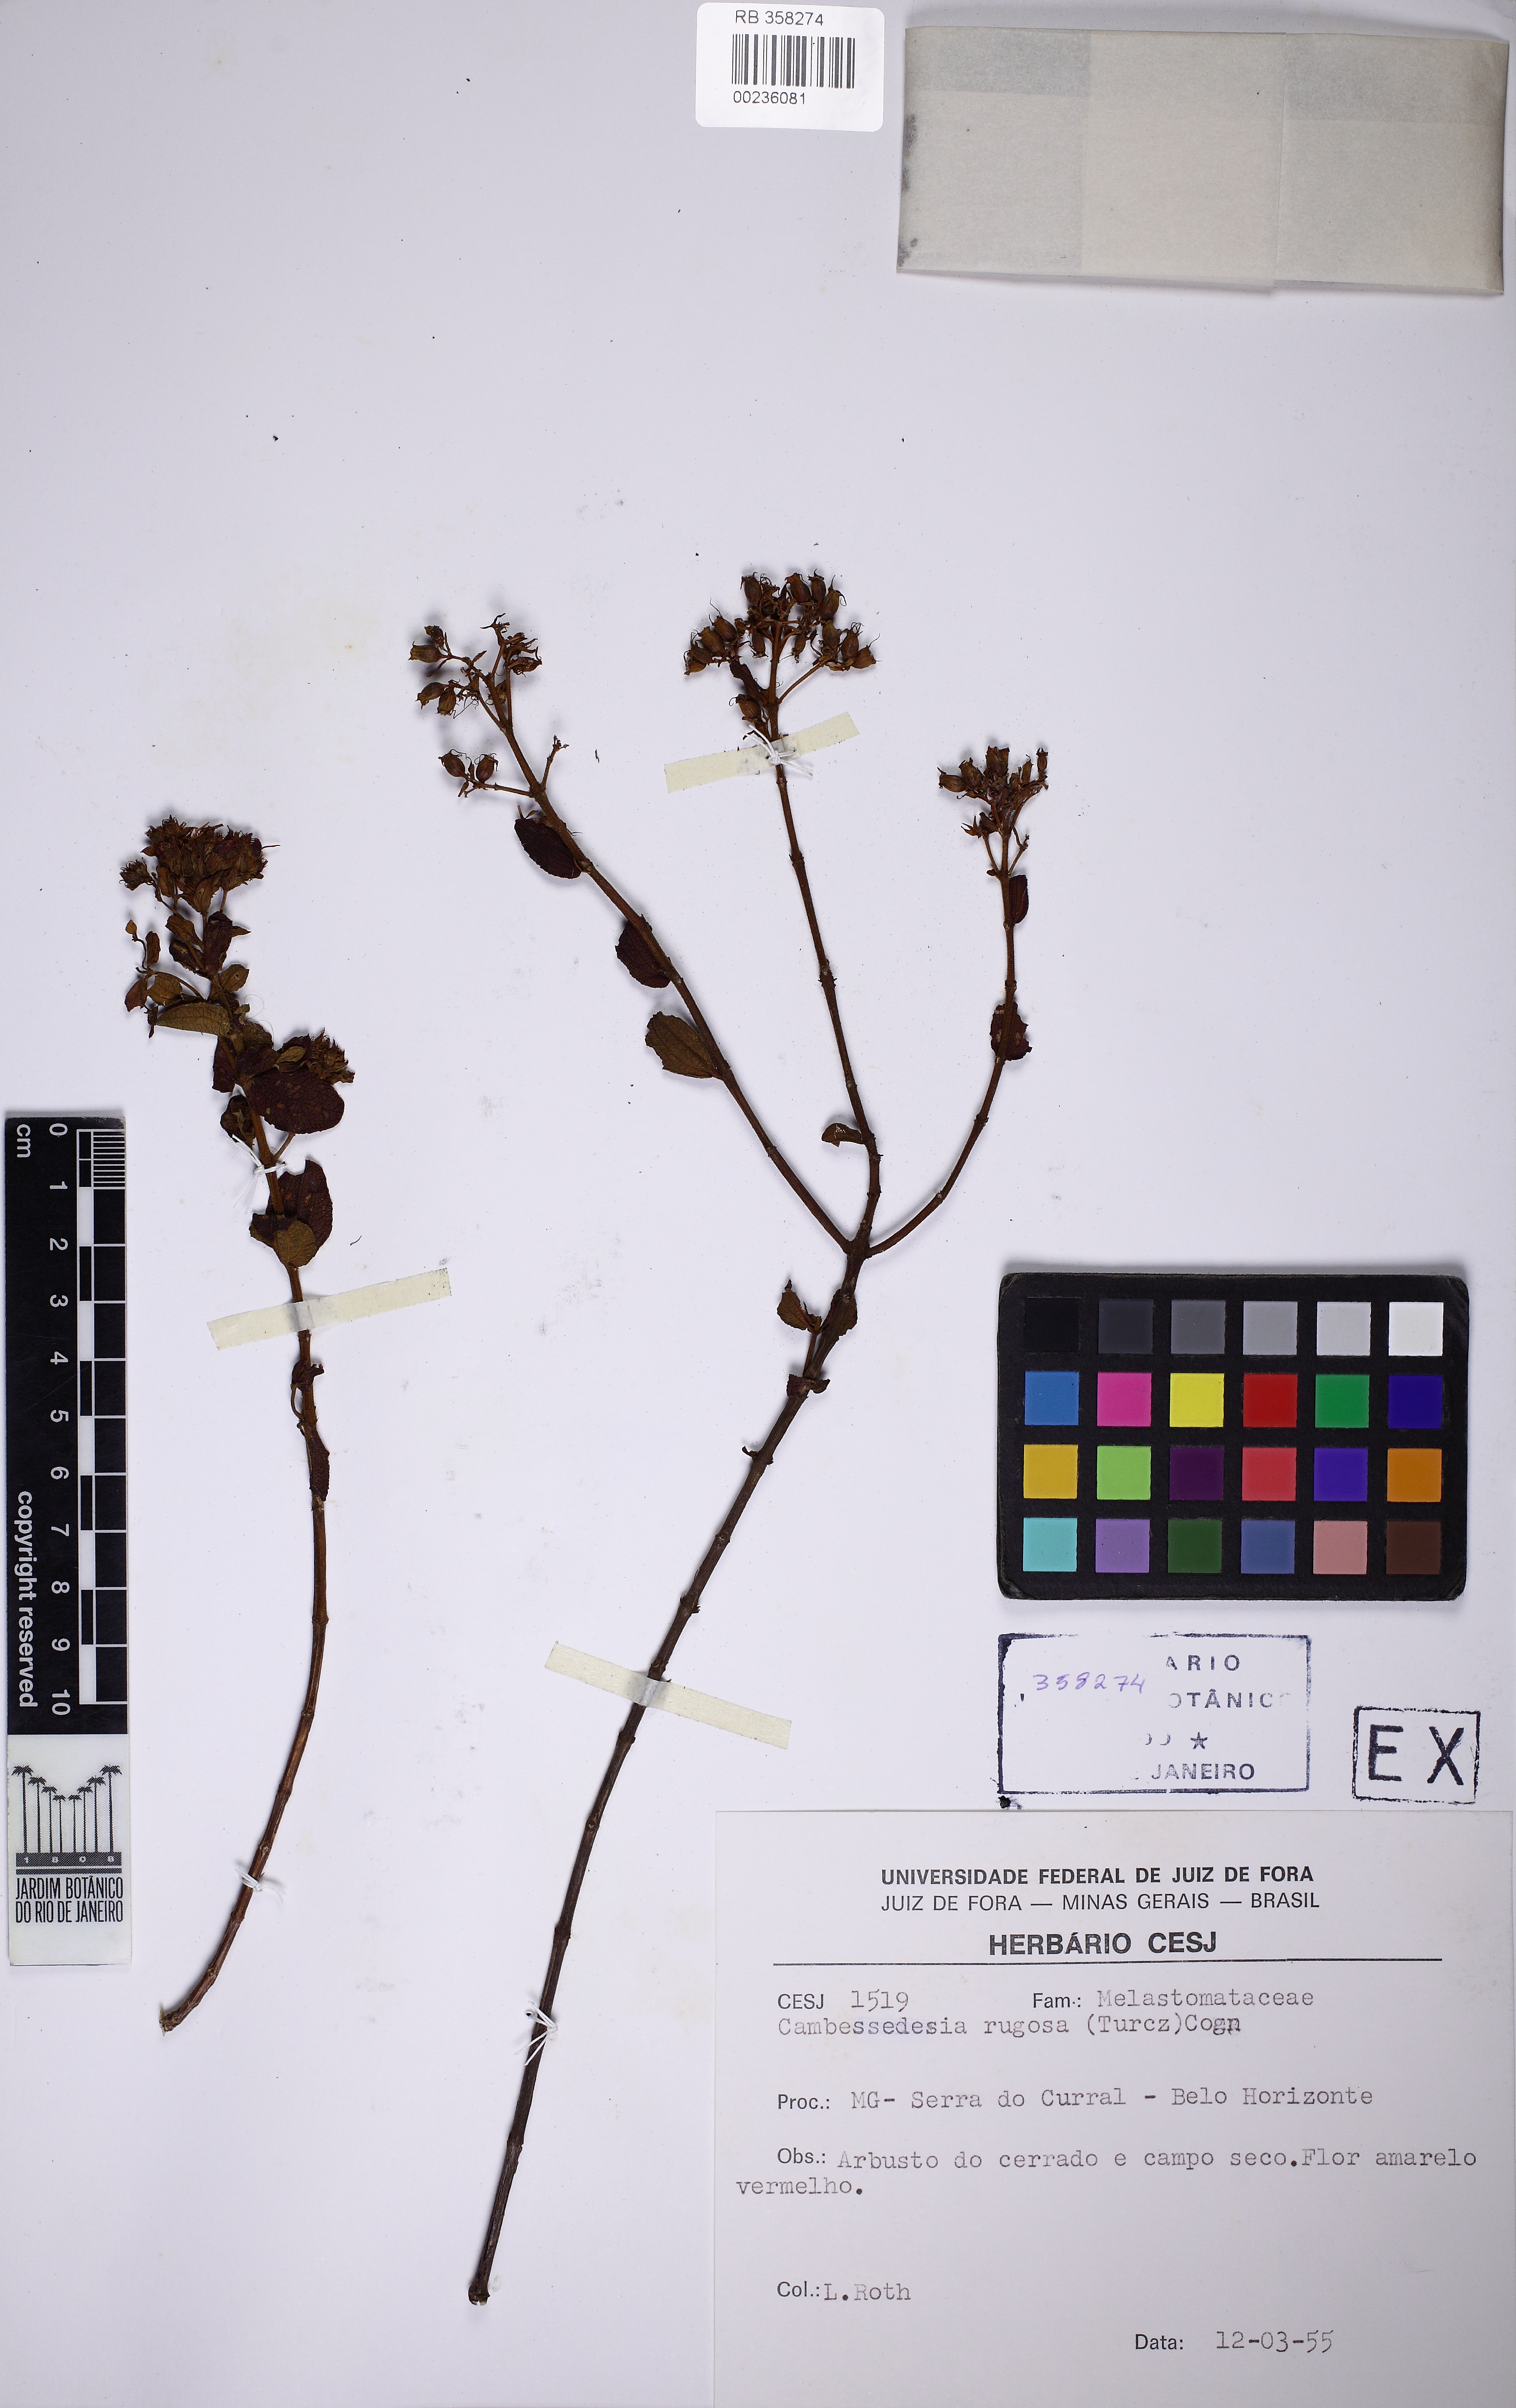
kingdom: Plantae
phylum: Tracheophyta
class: Magnoliopsida
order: Myrtales
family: Melastomataceae
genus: Cambessedesia
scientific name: Cambessedesia corymbosa
